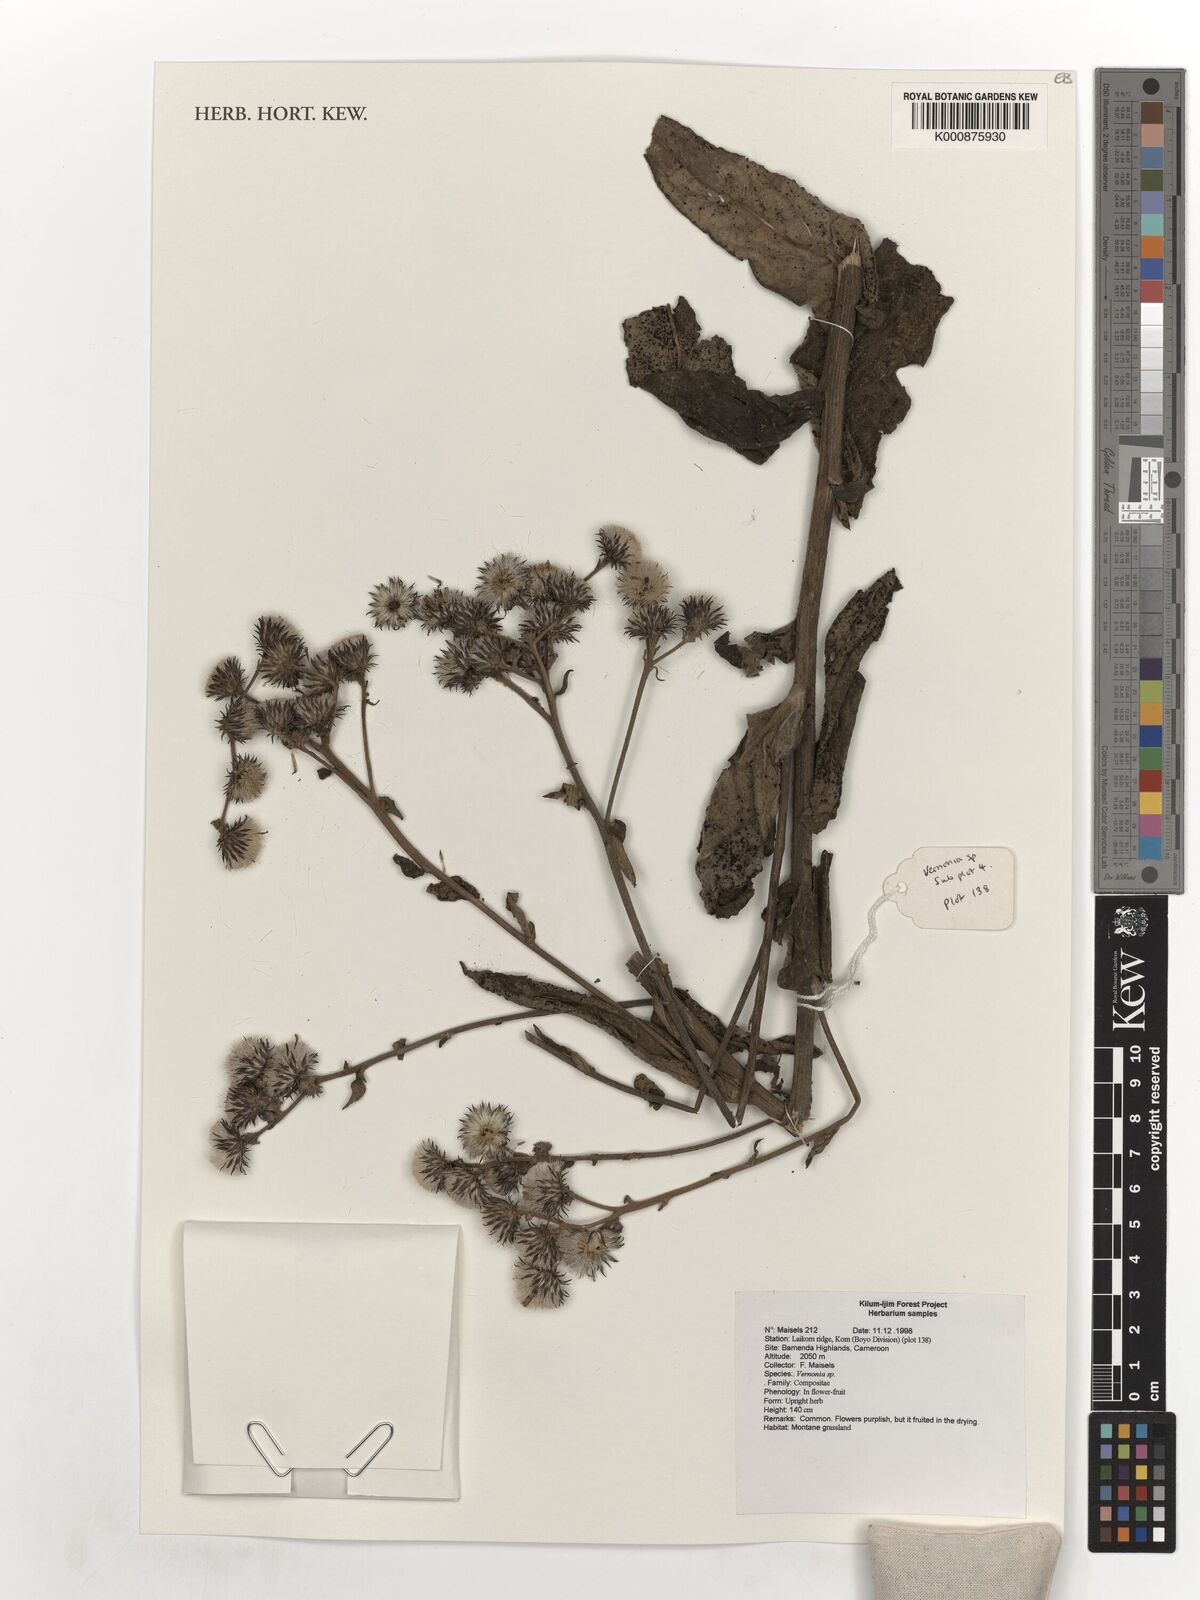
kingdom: Plantae
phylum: Tracheophyta
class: Magnoliopsida
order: Asterales
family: Asteraceae
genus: Vernonia
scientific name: Vernonia
